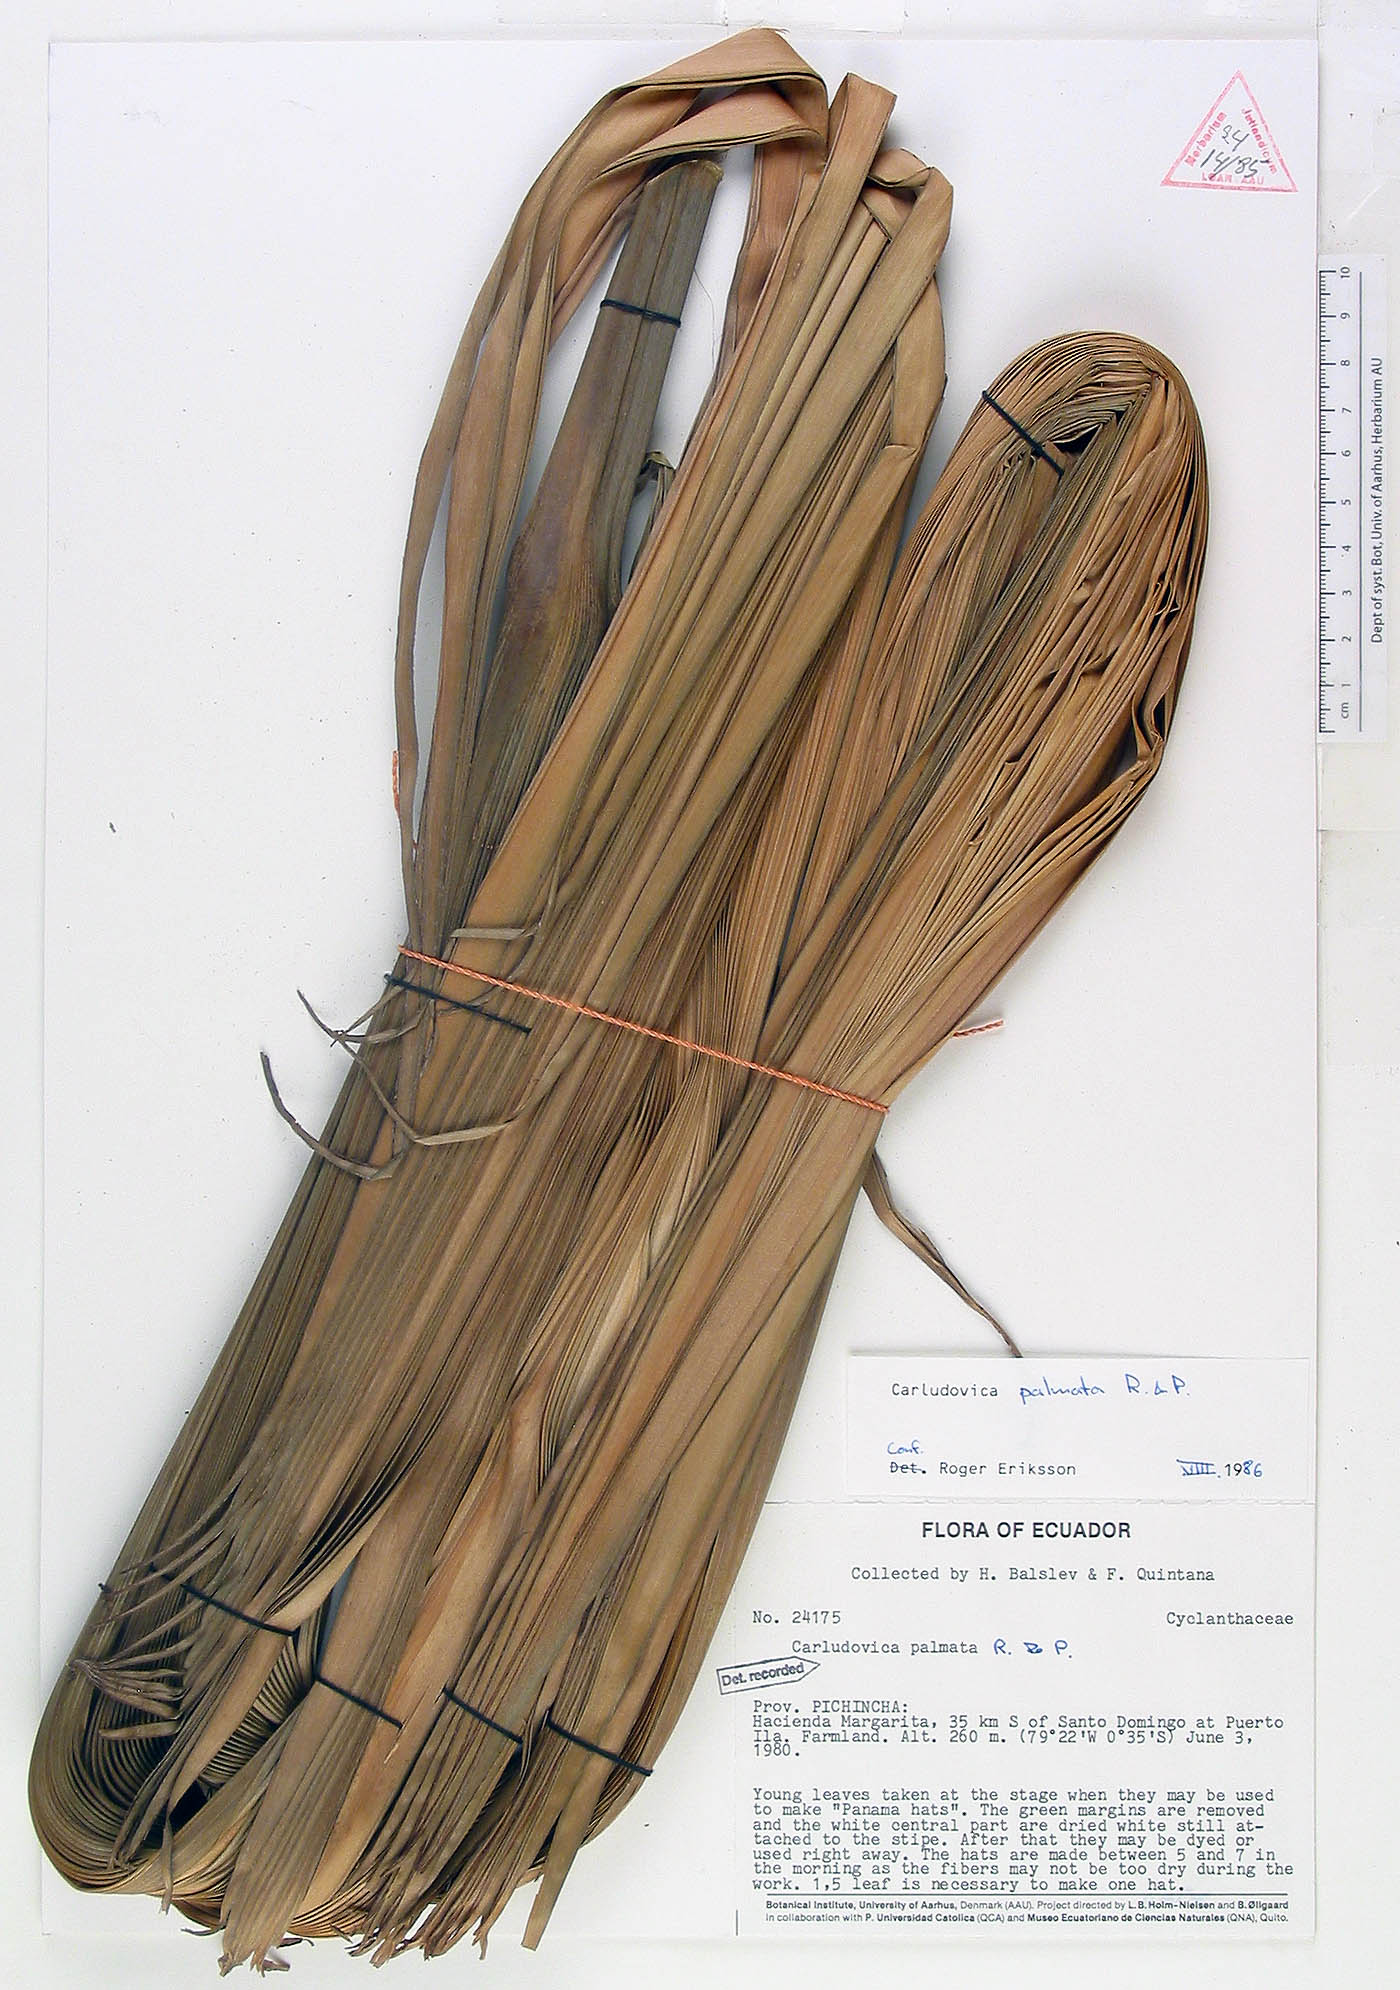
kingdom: Plantae
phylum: Tracheophyta
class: Liliopsida
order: Pandanales
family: Cyclanthaceae
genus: Carludovica
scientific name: Carludovica palmata
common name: Panama hat plant
